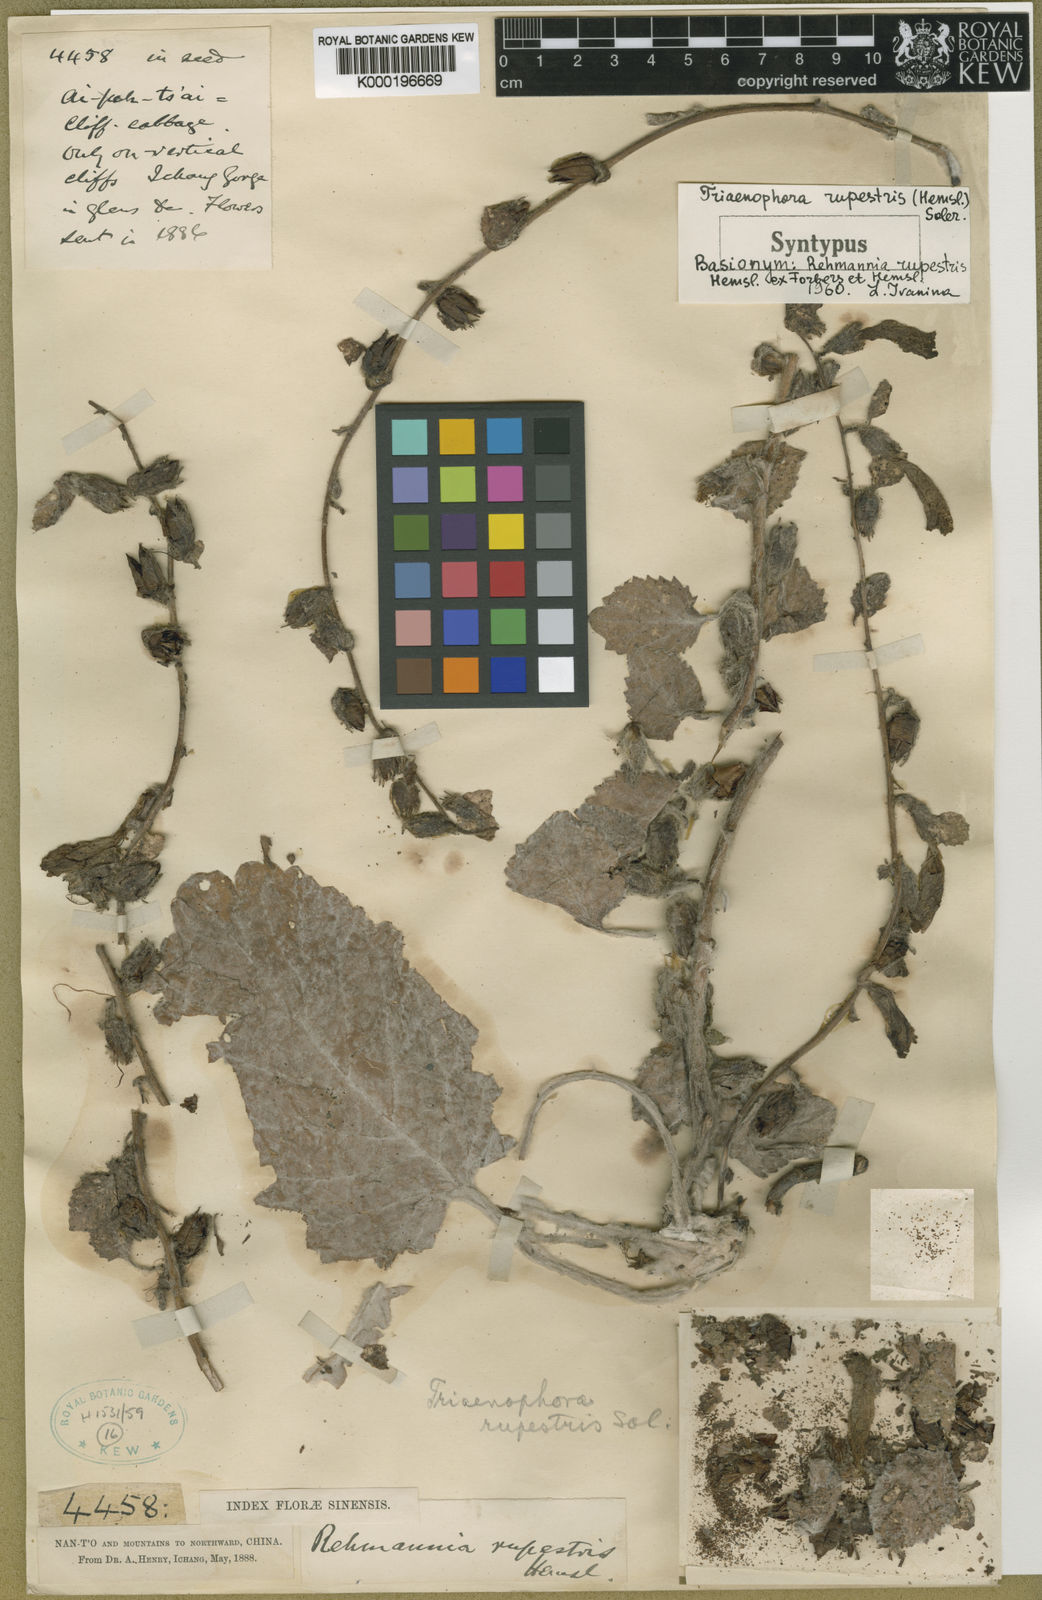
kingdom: Plantae
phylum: Tracheophyta
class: Magnoliopsida
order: Lamiales
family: Rehmanniaceae
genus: Triaenophora
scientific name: Triaenophora rupestris
